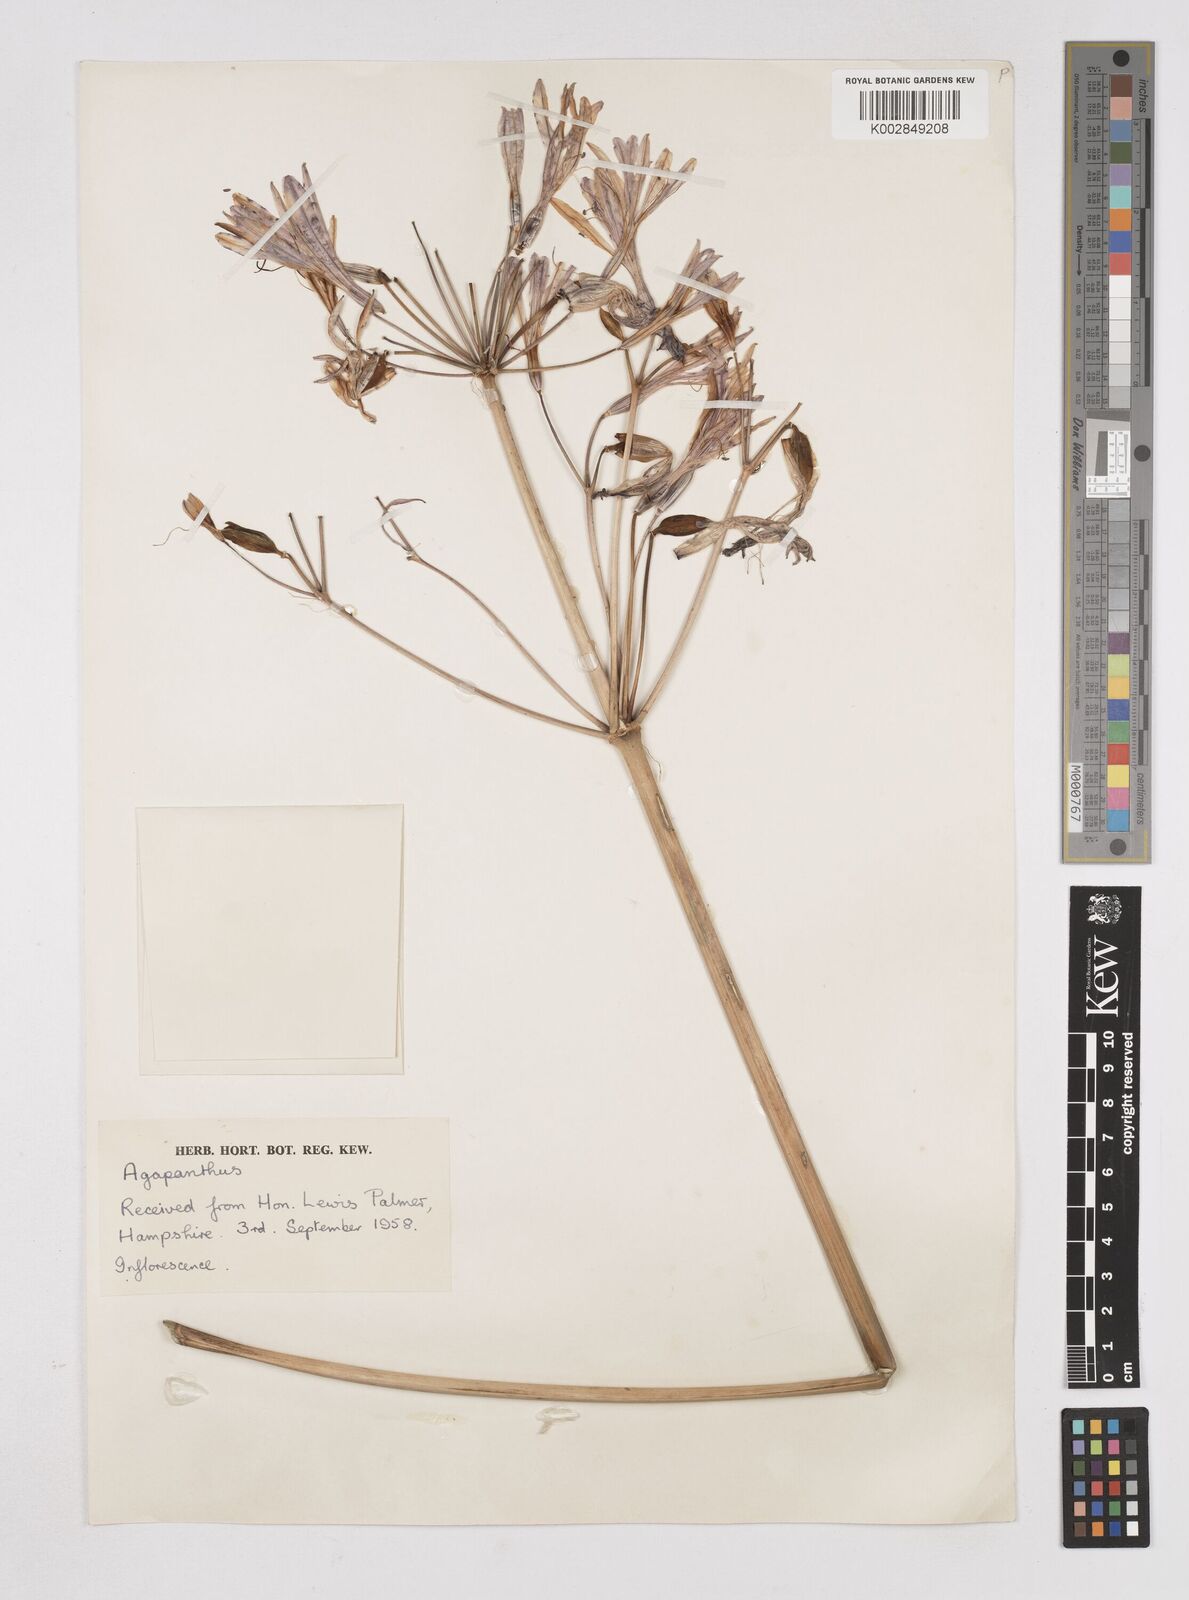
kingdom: Plantae
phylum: Tracheophyta
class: Liliopsida
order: Liliales
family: Liliaceae
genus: Agapanthus
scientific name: Agapanthus
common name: Agapanthus
